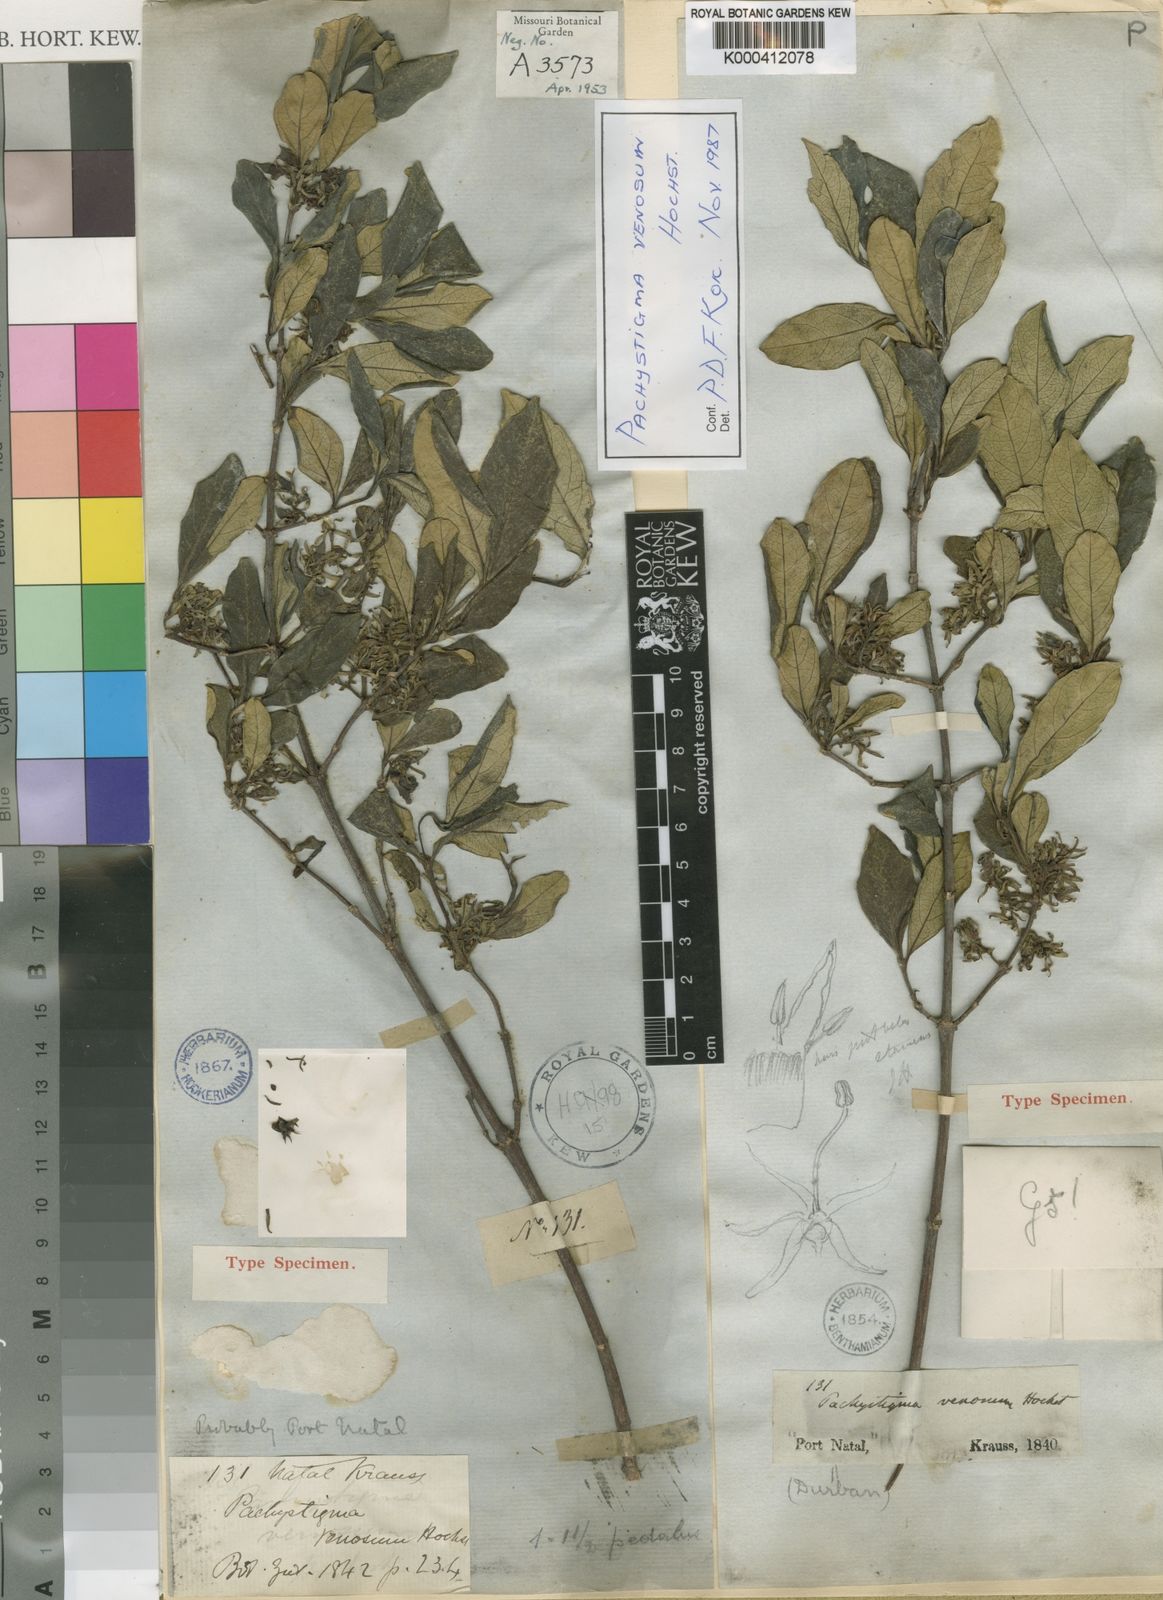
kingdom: Plantae
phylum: Tracheophyta
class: Magnoliopsida
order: Gentianales
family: Rubiaceae
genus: Vangueria
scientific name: Vangueria madagascariensis
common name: Smooth wild-medlar
